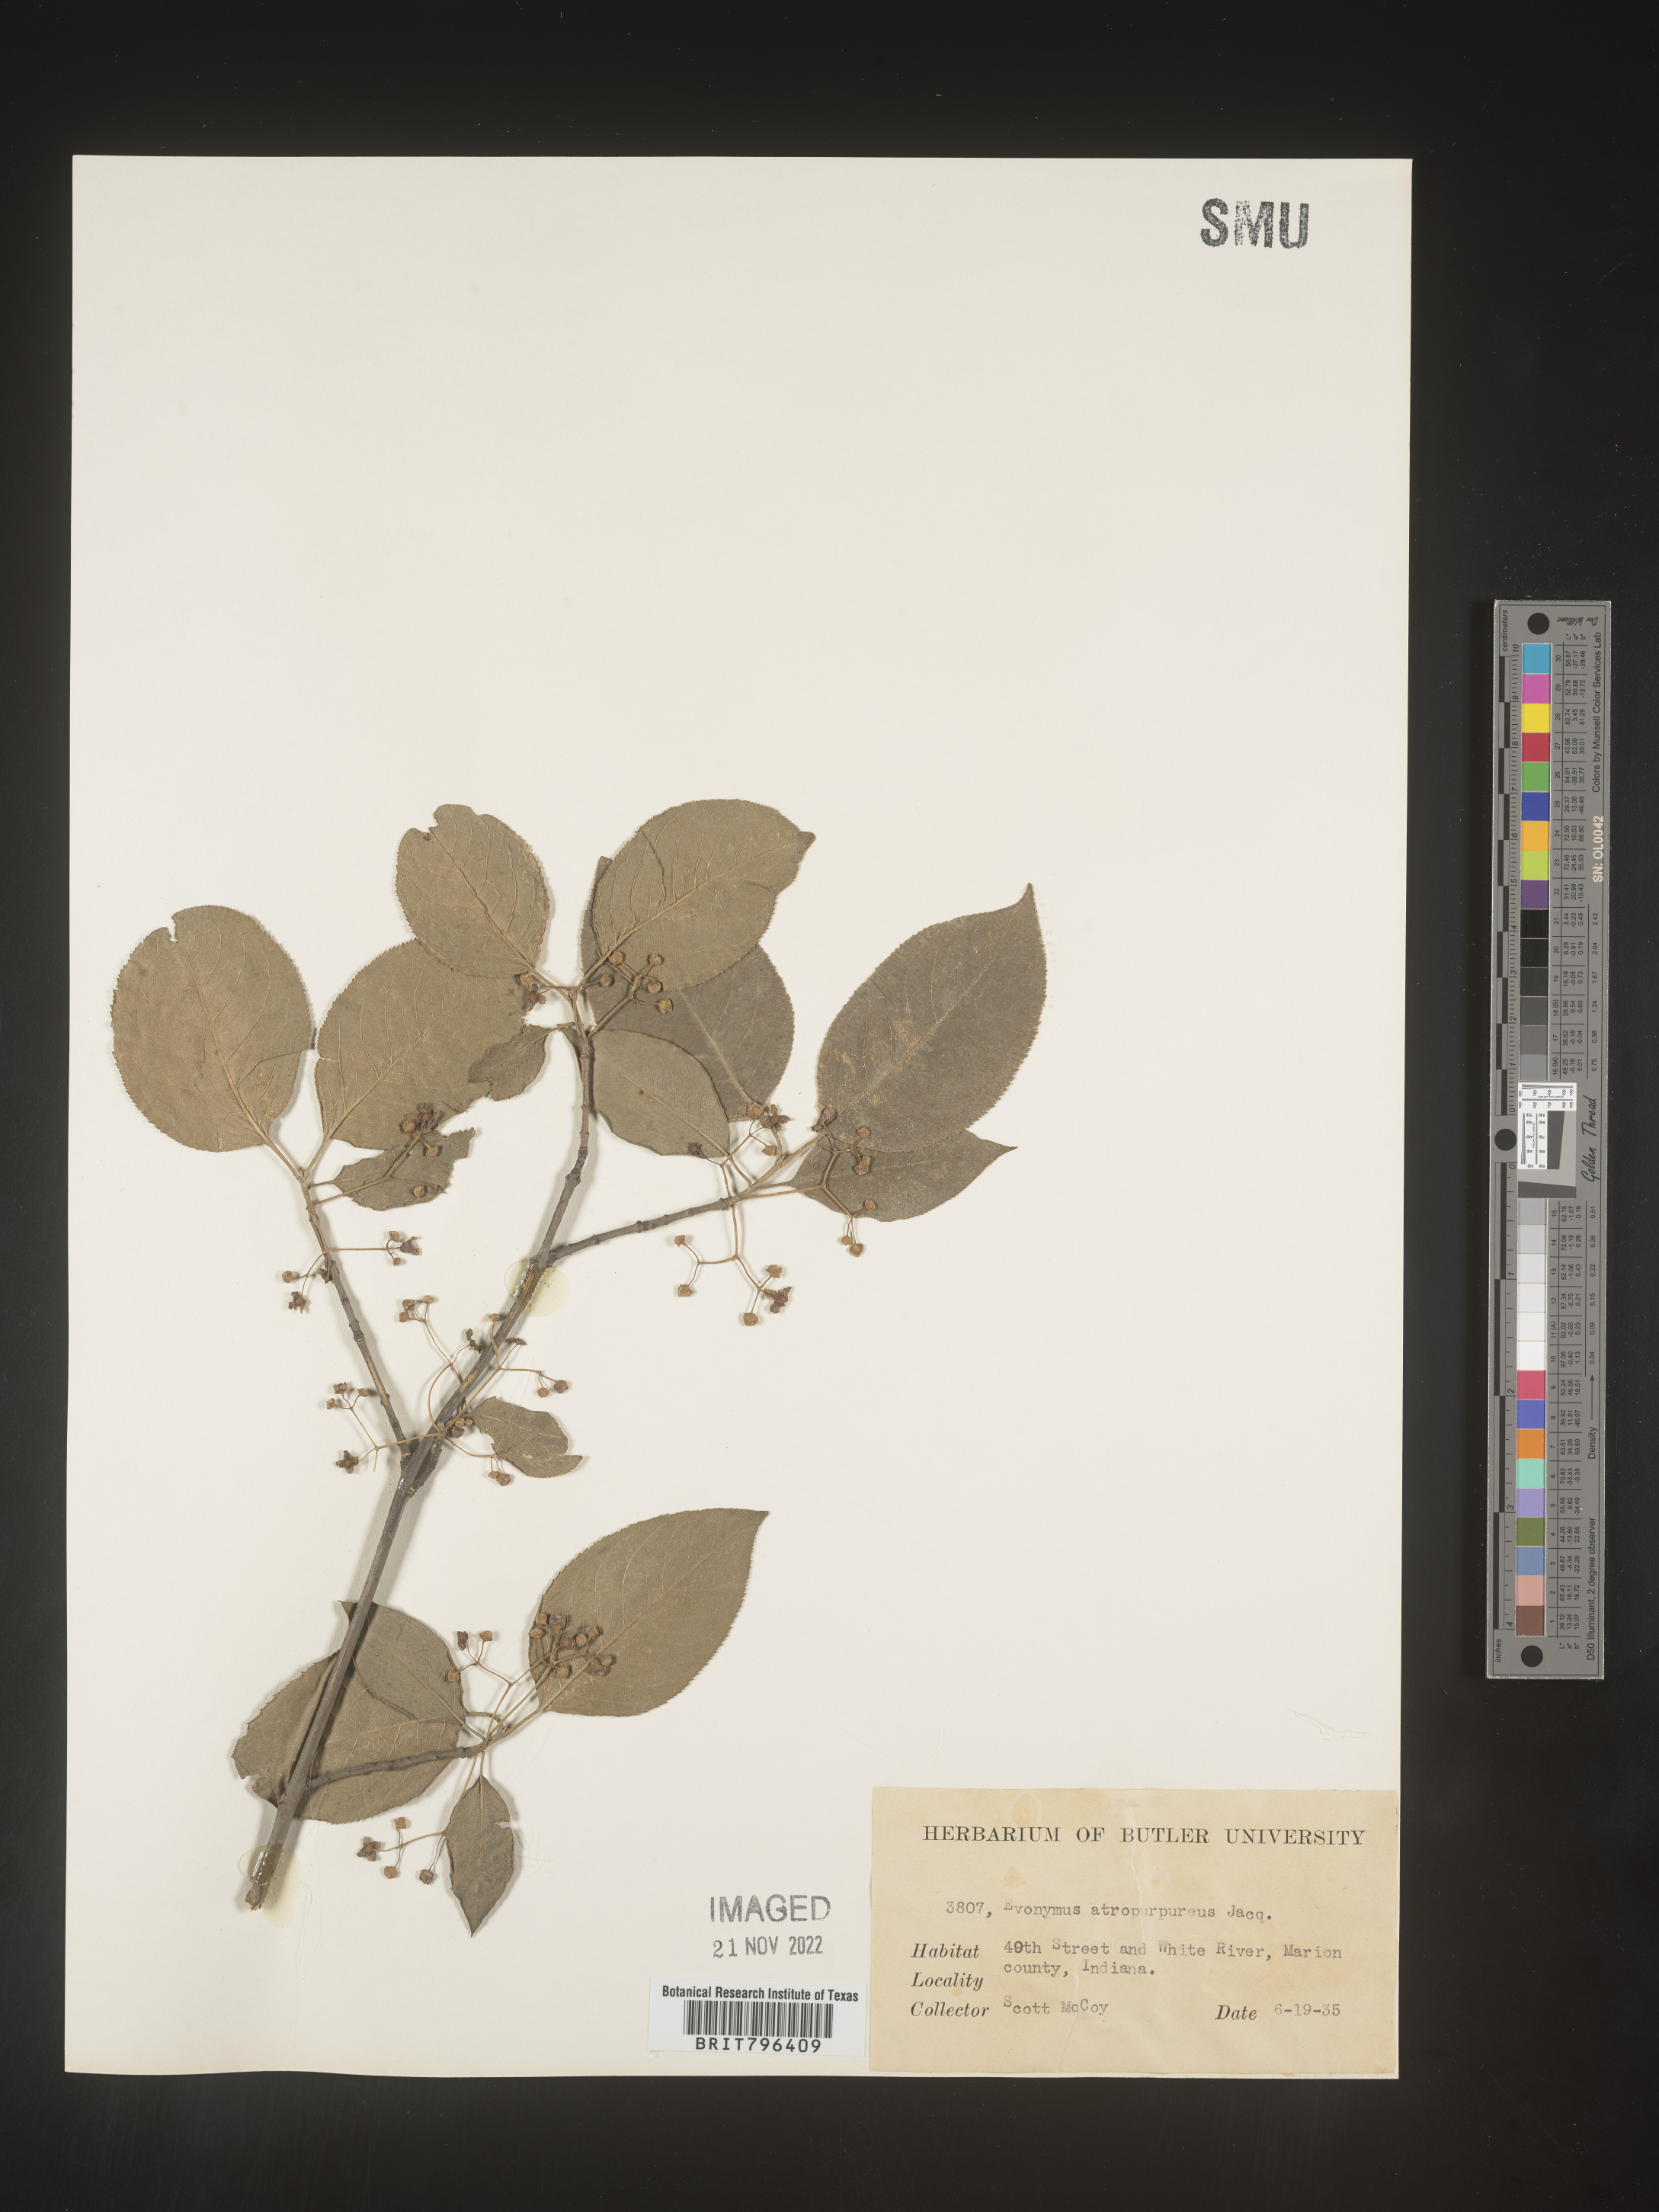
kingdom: Plantae
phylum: Tracheophyta
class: Magnoliopsida
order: Celastrales
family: Celastraceae
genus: Euonymus
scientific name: Euonymus atropurpureus
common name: Eastern wahoo
